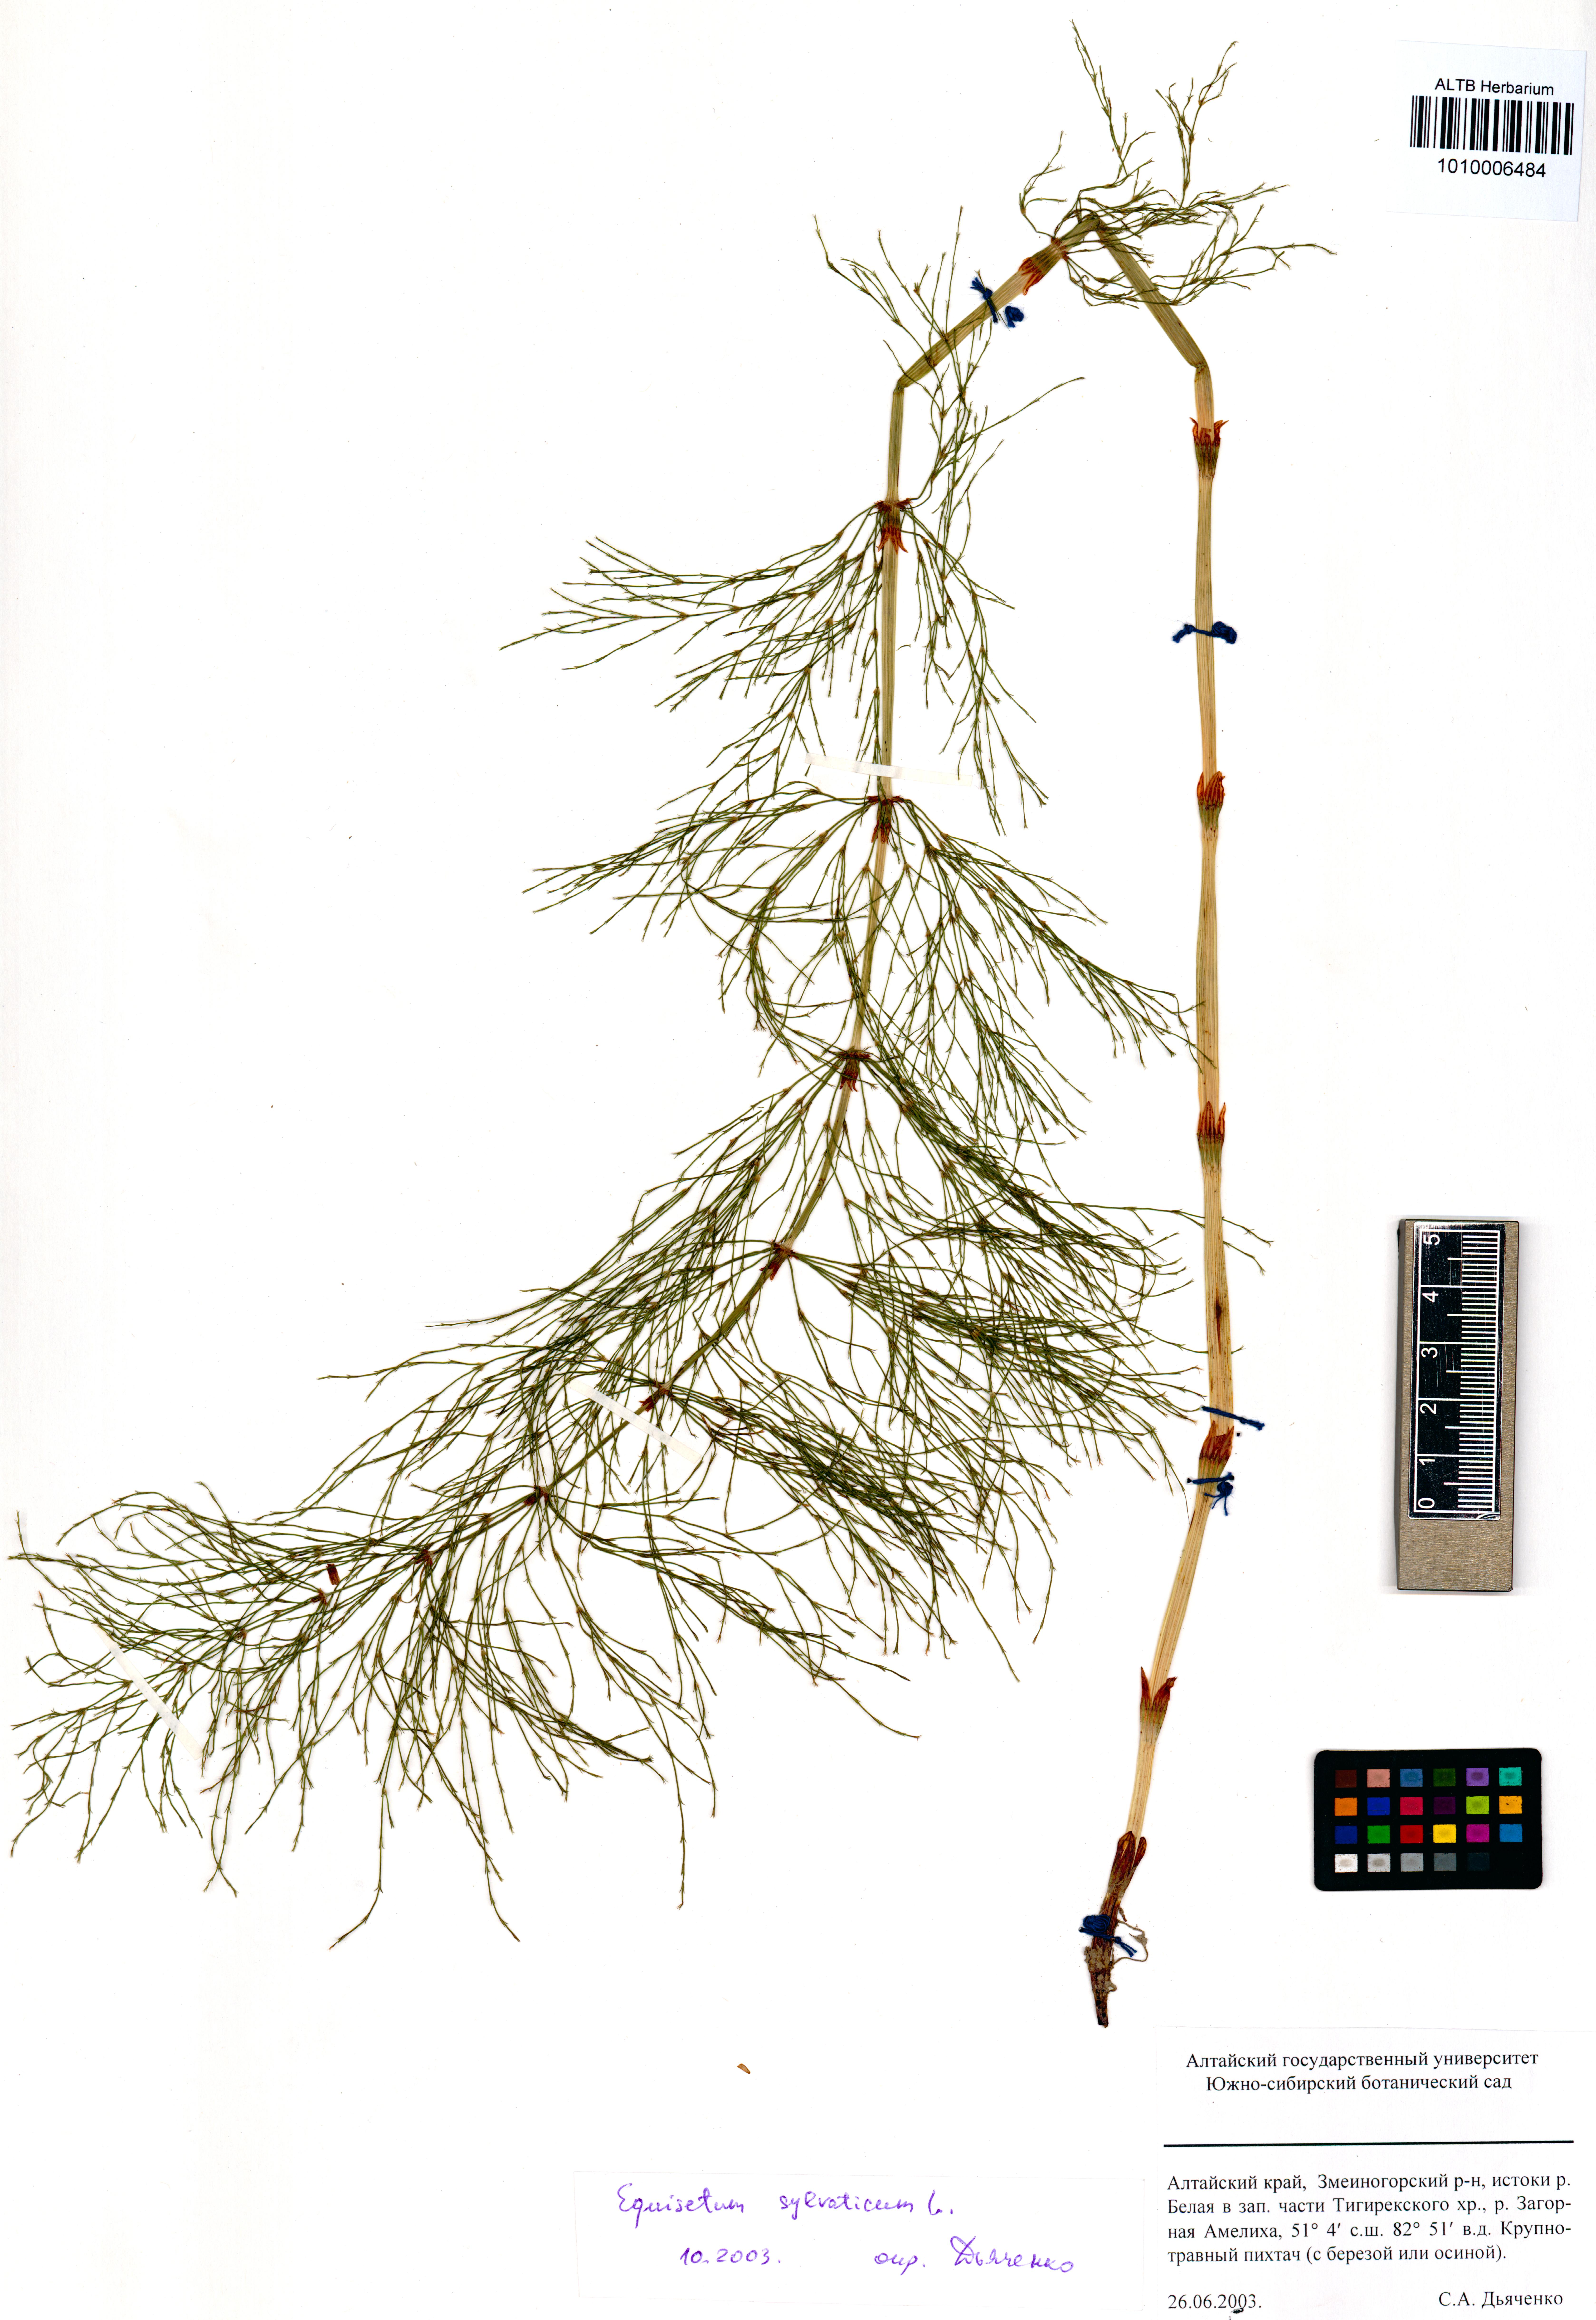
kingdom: Plantae
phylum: Tracheophyta
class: Polypodiopsida
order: Equisetales
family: Equisetaceae
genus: Equisetum
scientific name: Equisetum sylvaticum
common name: Wood horsetail
